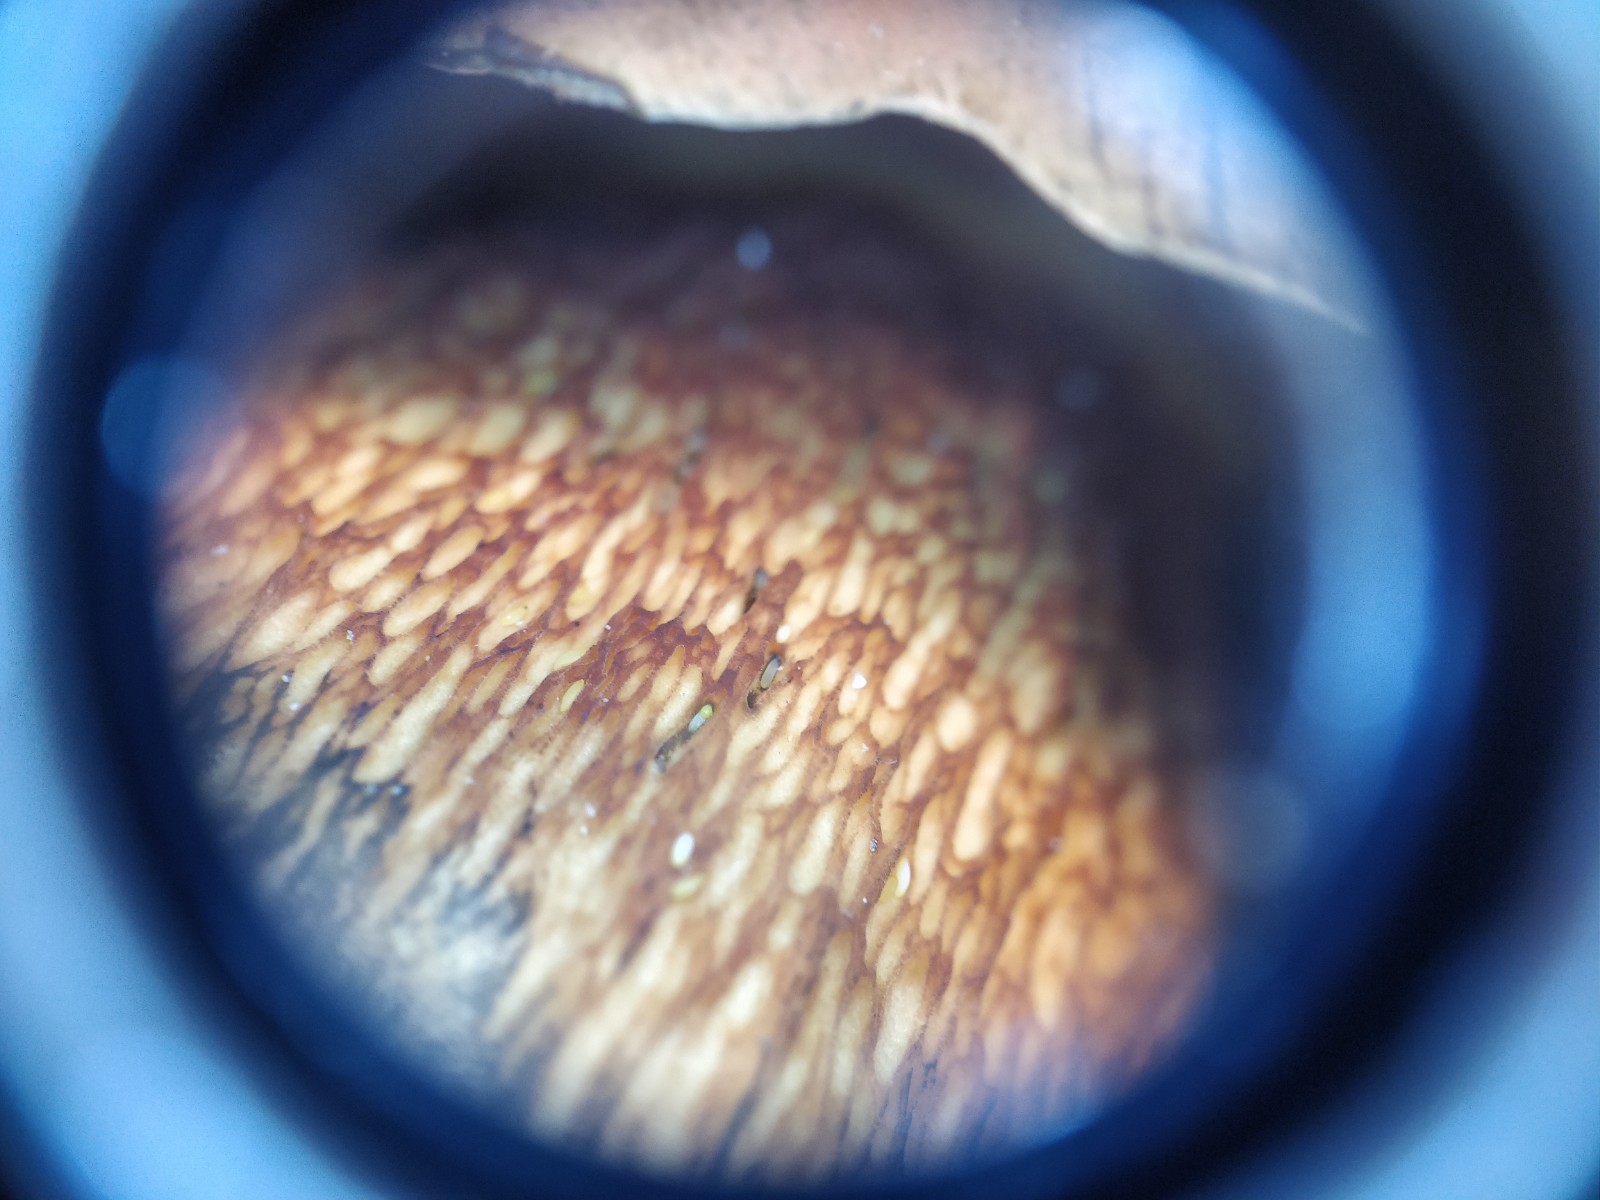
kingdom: Fungi
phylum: Basidiomycota
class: Agaricomycetes
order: Boletales
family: Boletaceae
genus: Suillellus
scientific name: Suillellus luridus
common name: netstokket indigorørhat
